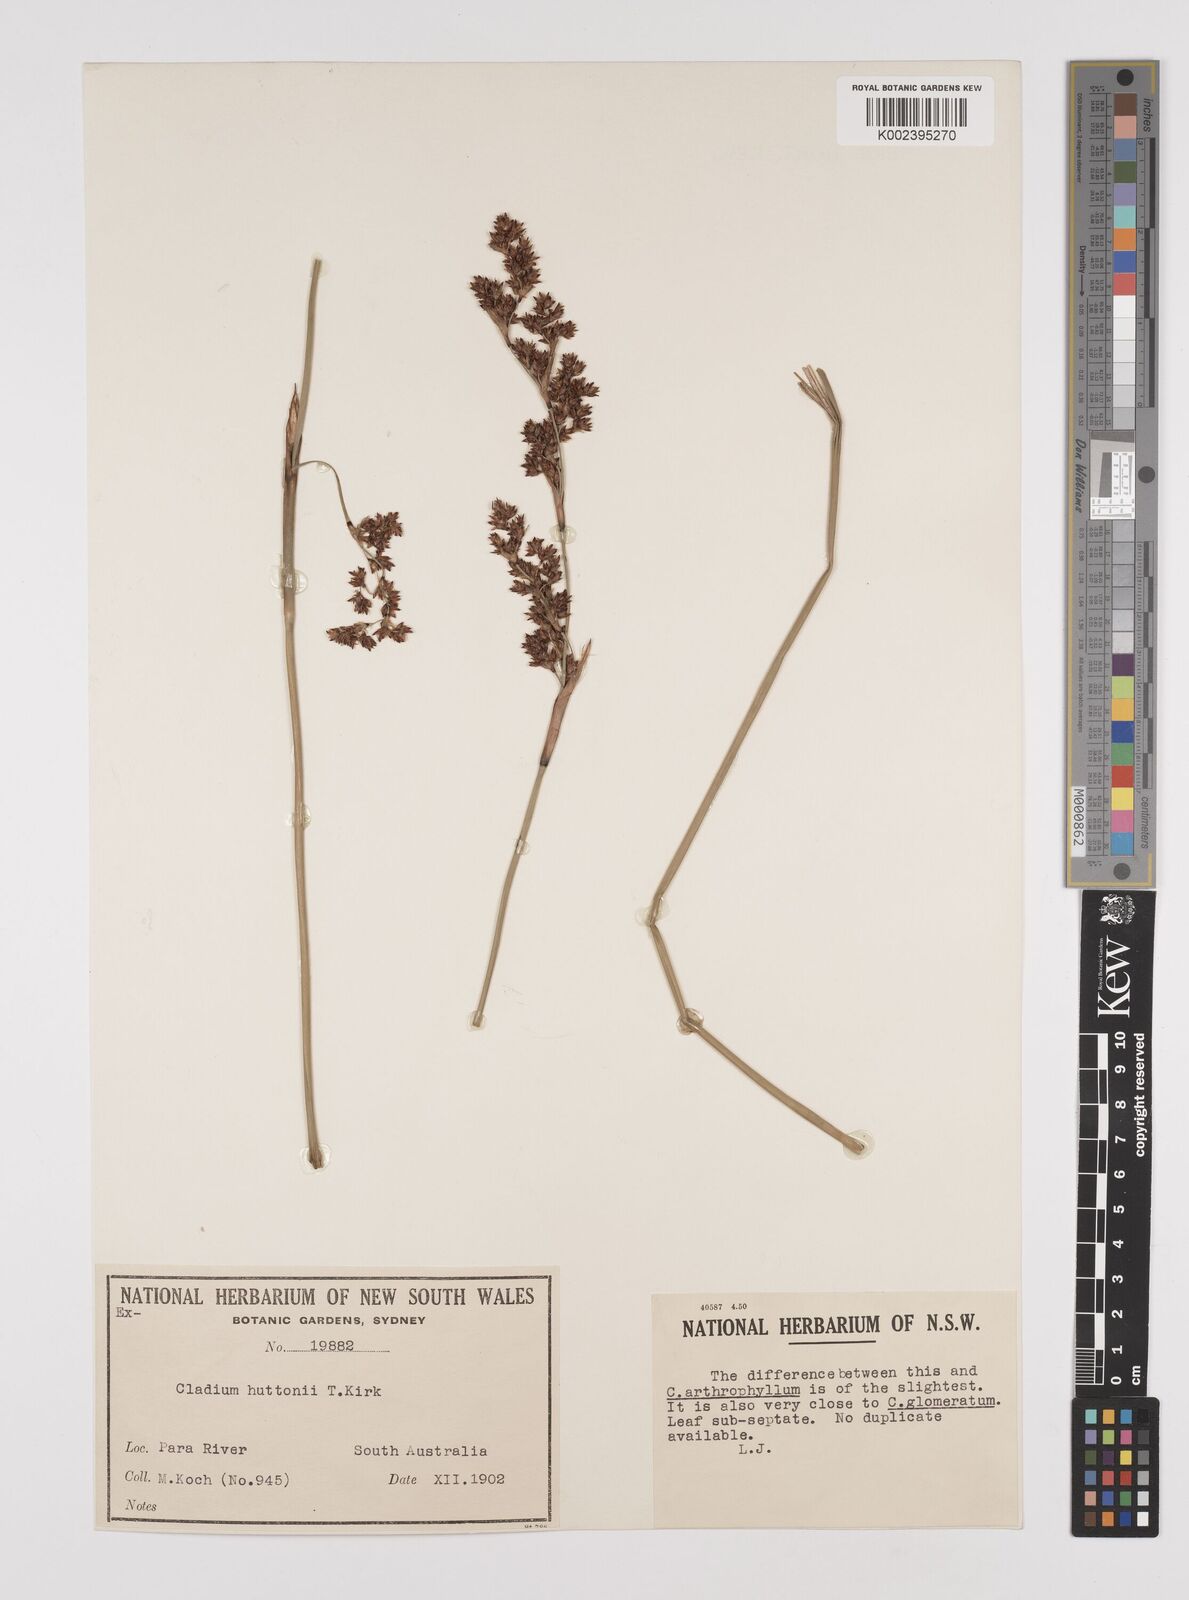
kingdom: Plantae
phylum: Tracheophyta
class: Liliopsida
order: Poales
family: Cyperaceae
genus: Machaerina
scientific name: Machaerina huttonii
